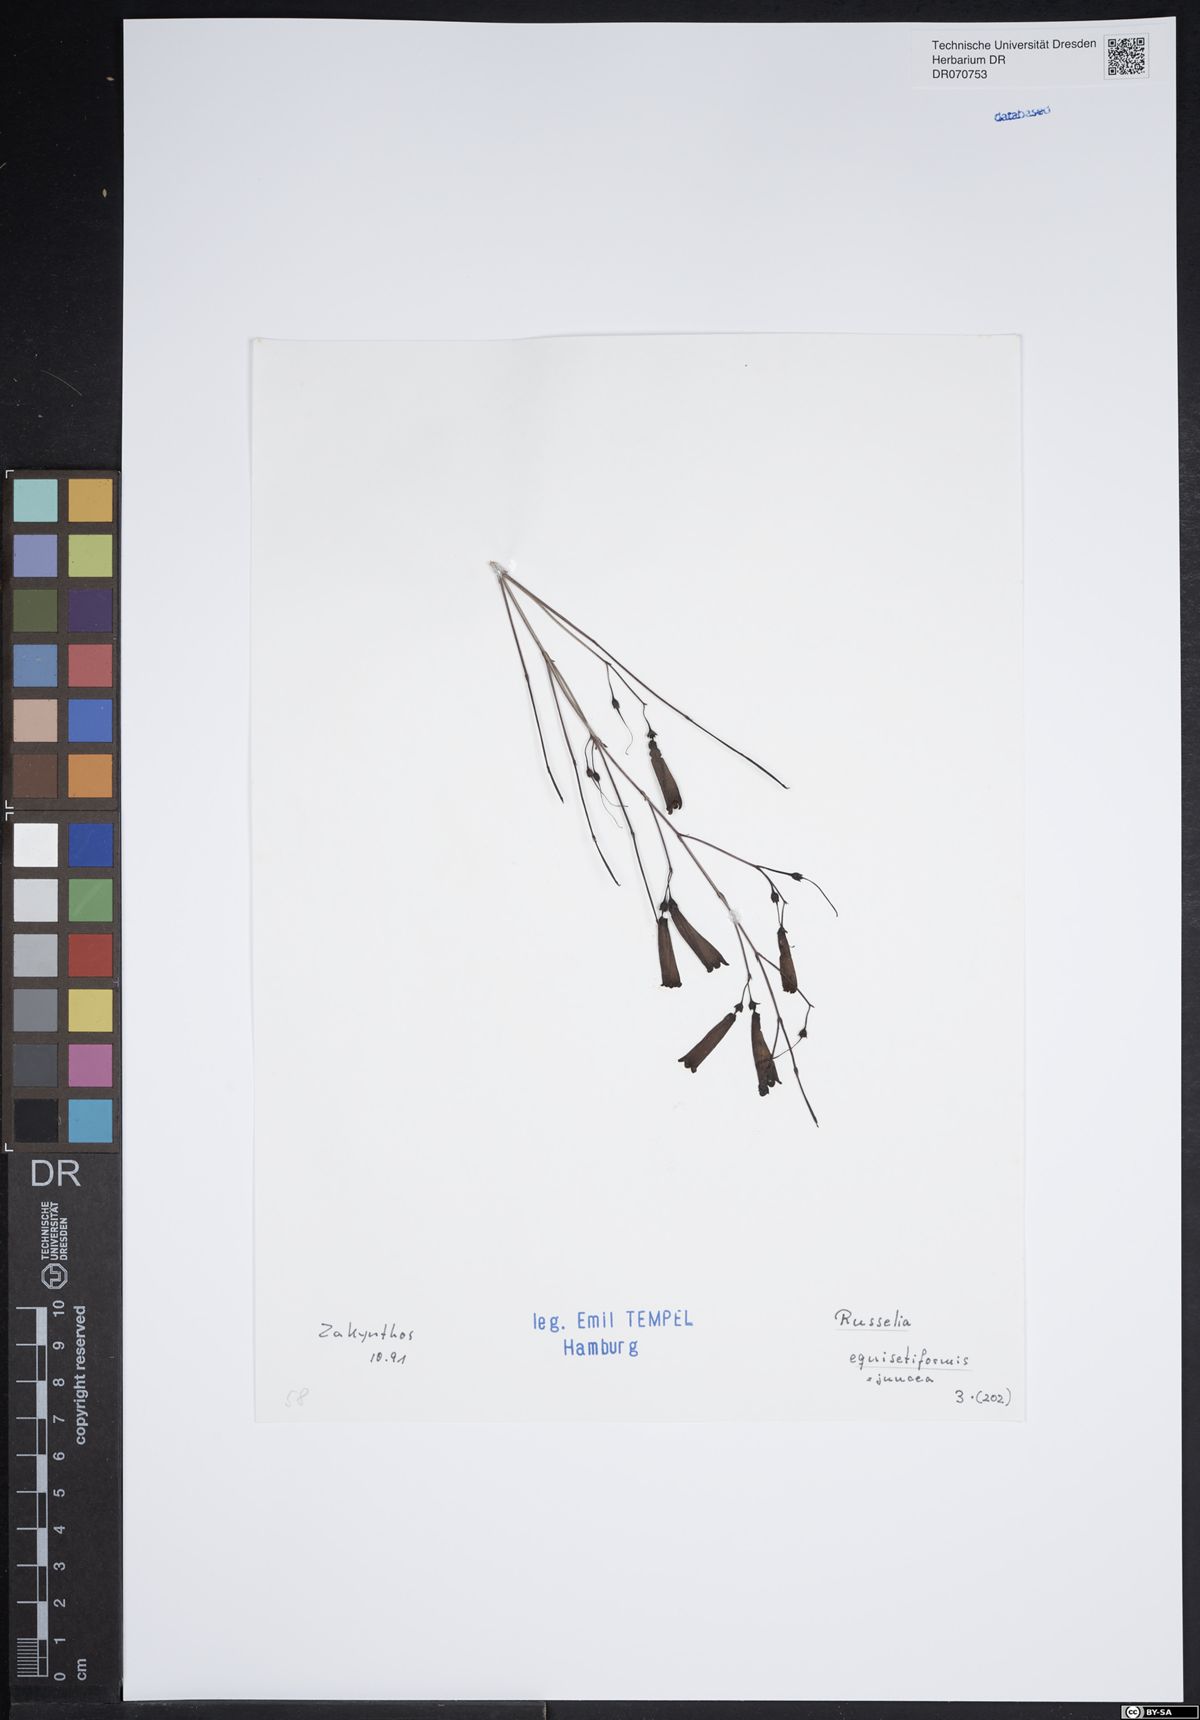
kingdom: Plantae
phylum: Tracheophyta
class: Magnoliopsida
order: Lamiales
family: Plantaginaceae
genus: Russelia
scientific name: Russelia equisetiformis
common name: Fountainbush
